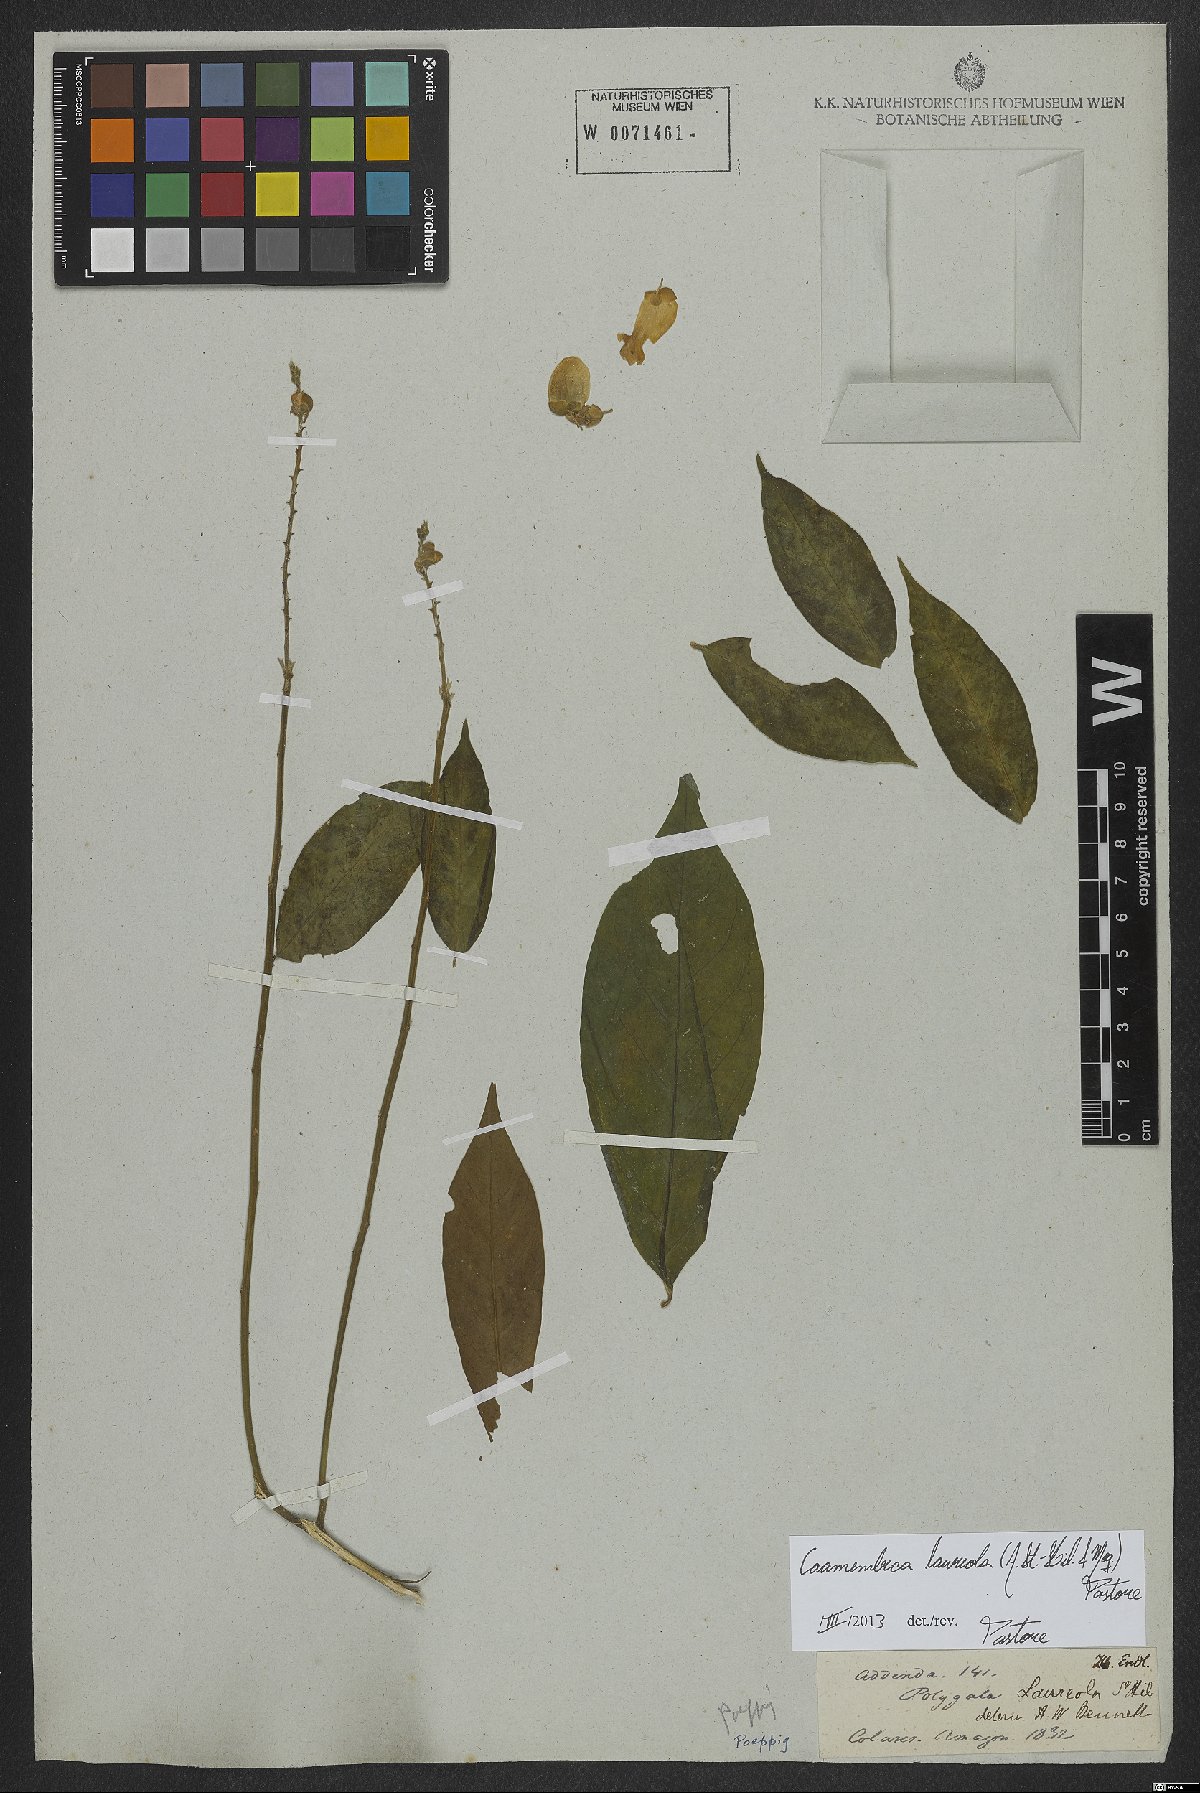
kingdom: Plantae
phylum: Tracheophyta
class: Magnoliopsida
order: Fabales
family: Polygalaceae
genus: Caamembeca
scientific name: Caamembeca salicifolia
